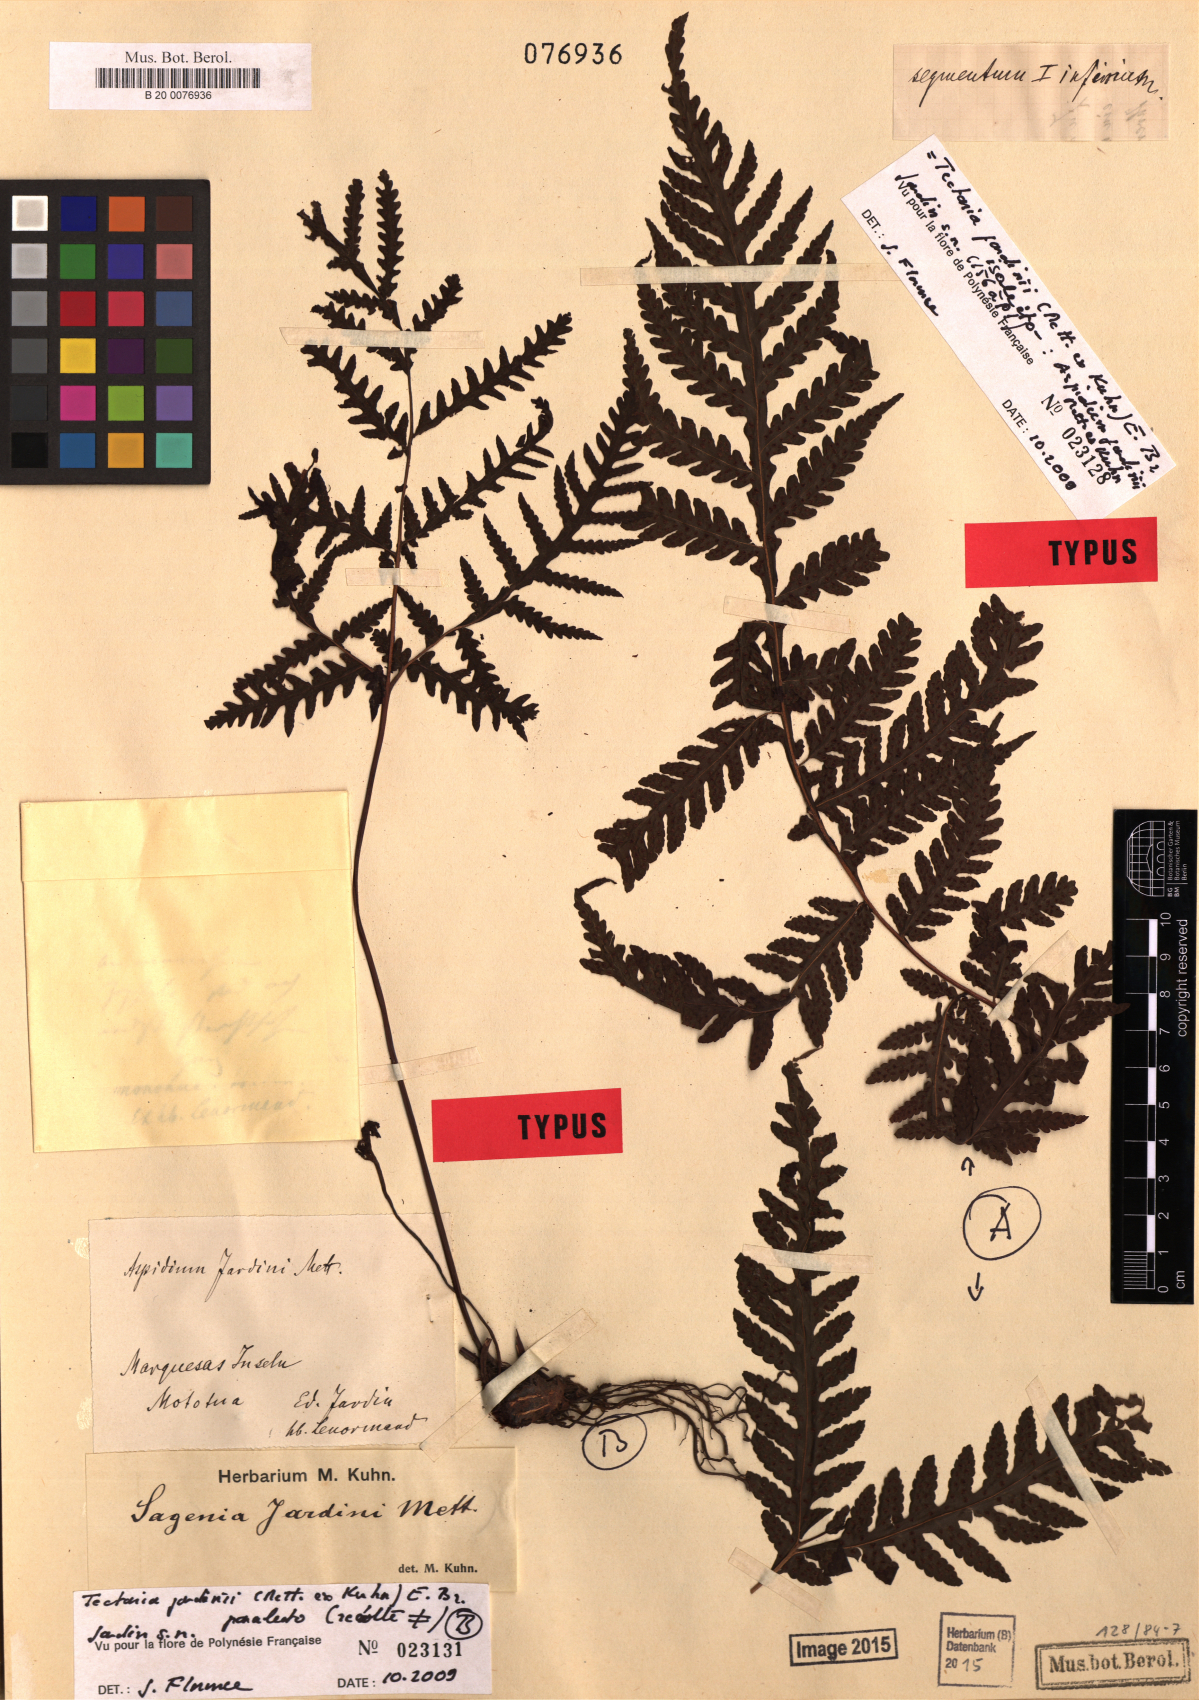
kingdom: Plantae
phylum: Tracheophyta
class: Polypodiopsida
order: Polypodiales
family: Tectariaceae
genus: Tectaria
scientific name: Tectaria jardinii
